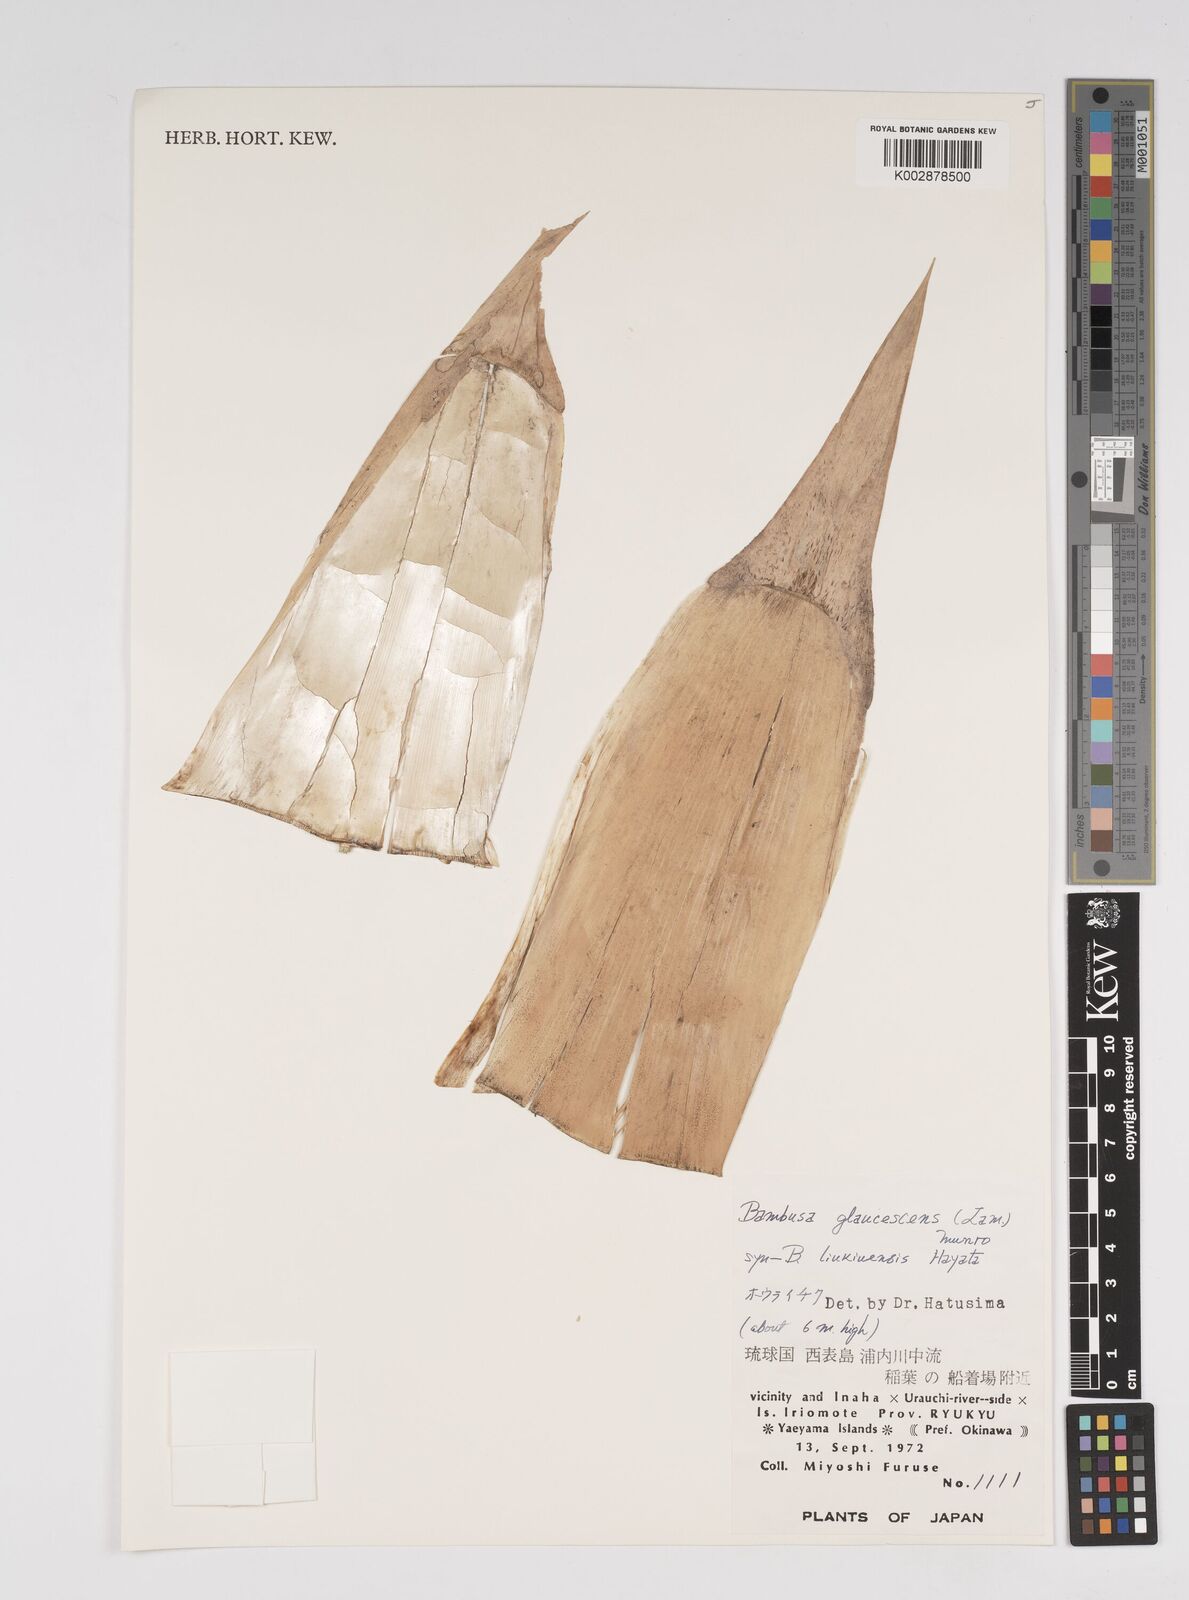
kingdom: Plantae
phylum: Tracheophyta
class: Liliopsida
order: Poales
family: Poaceae
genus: Dendrocalamus
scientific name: Dendrocalamus latiflorus
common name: Giant bamboo
